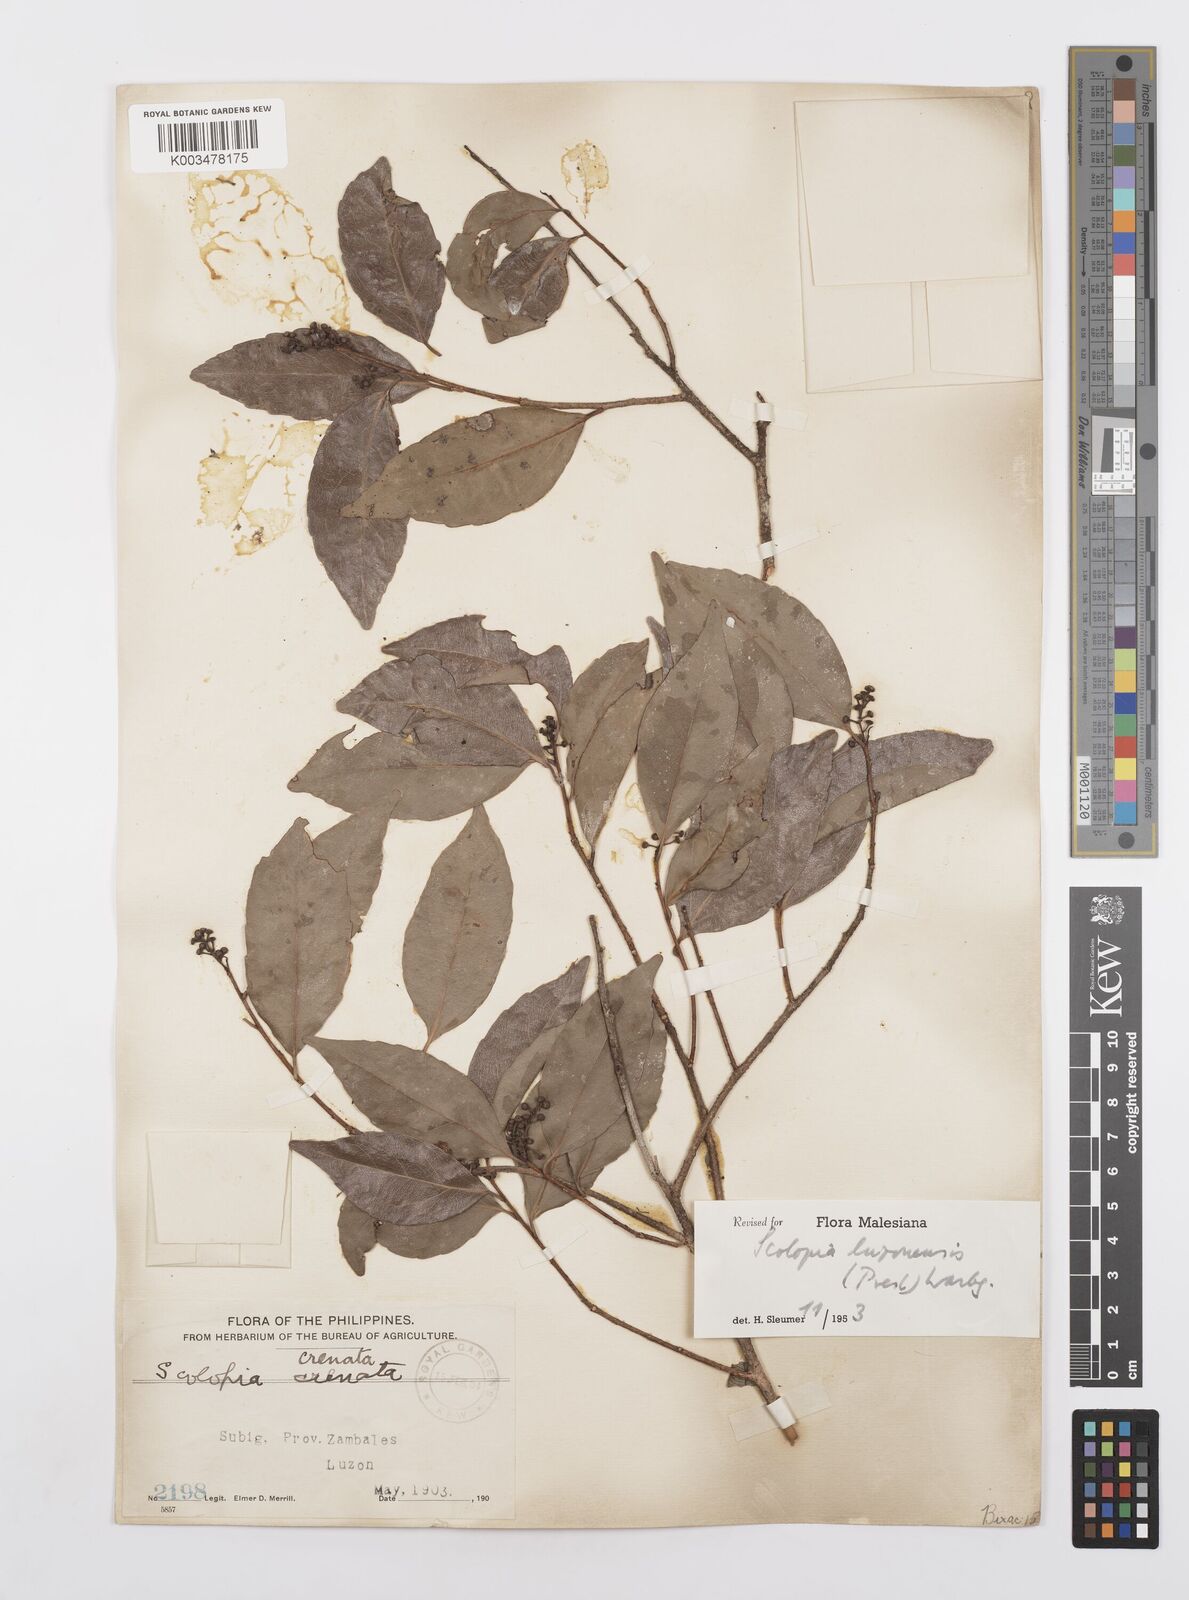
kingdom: Plantae
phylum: Tracheophyta
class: Magnoliopsida
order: Malpighiales
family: Salicaceae
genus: Scolopia
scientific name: Scolopia luzonensis
